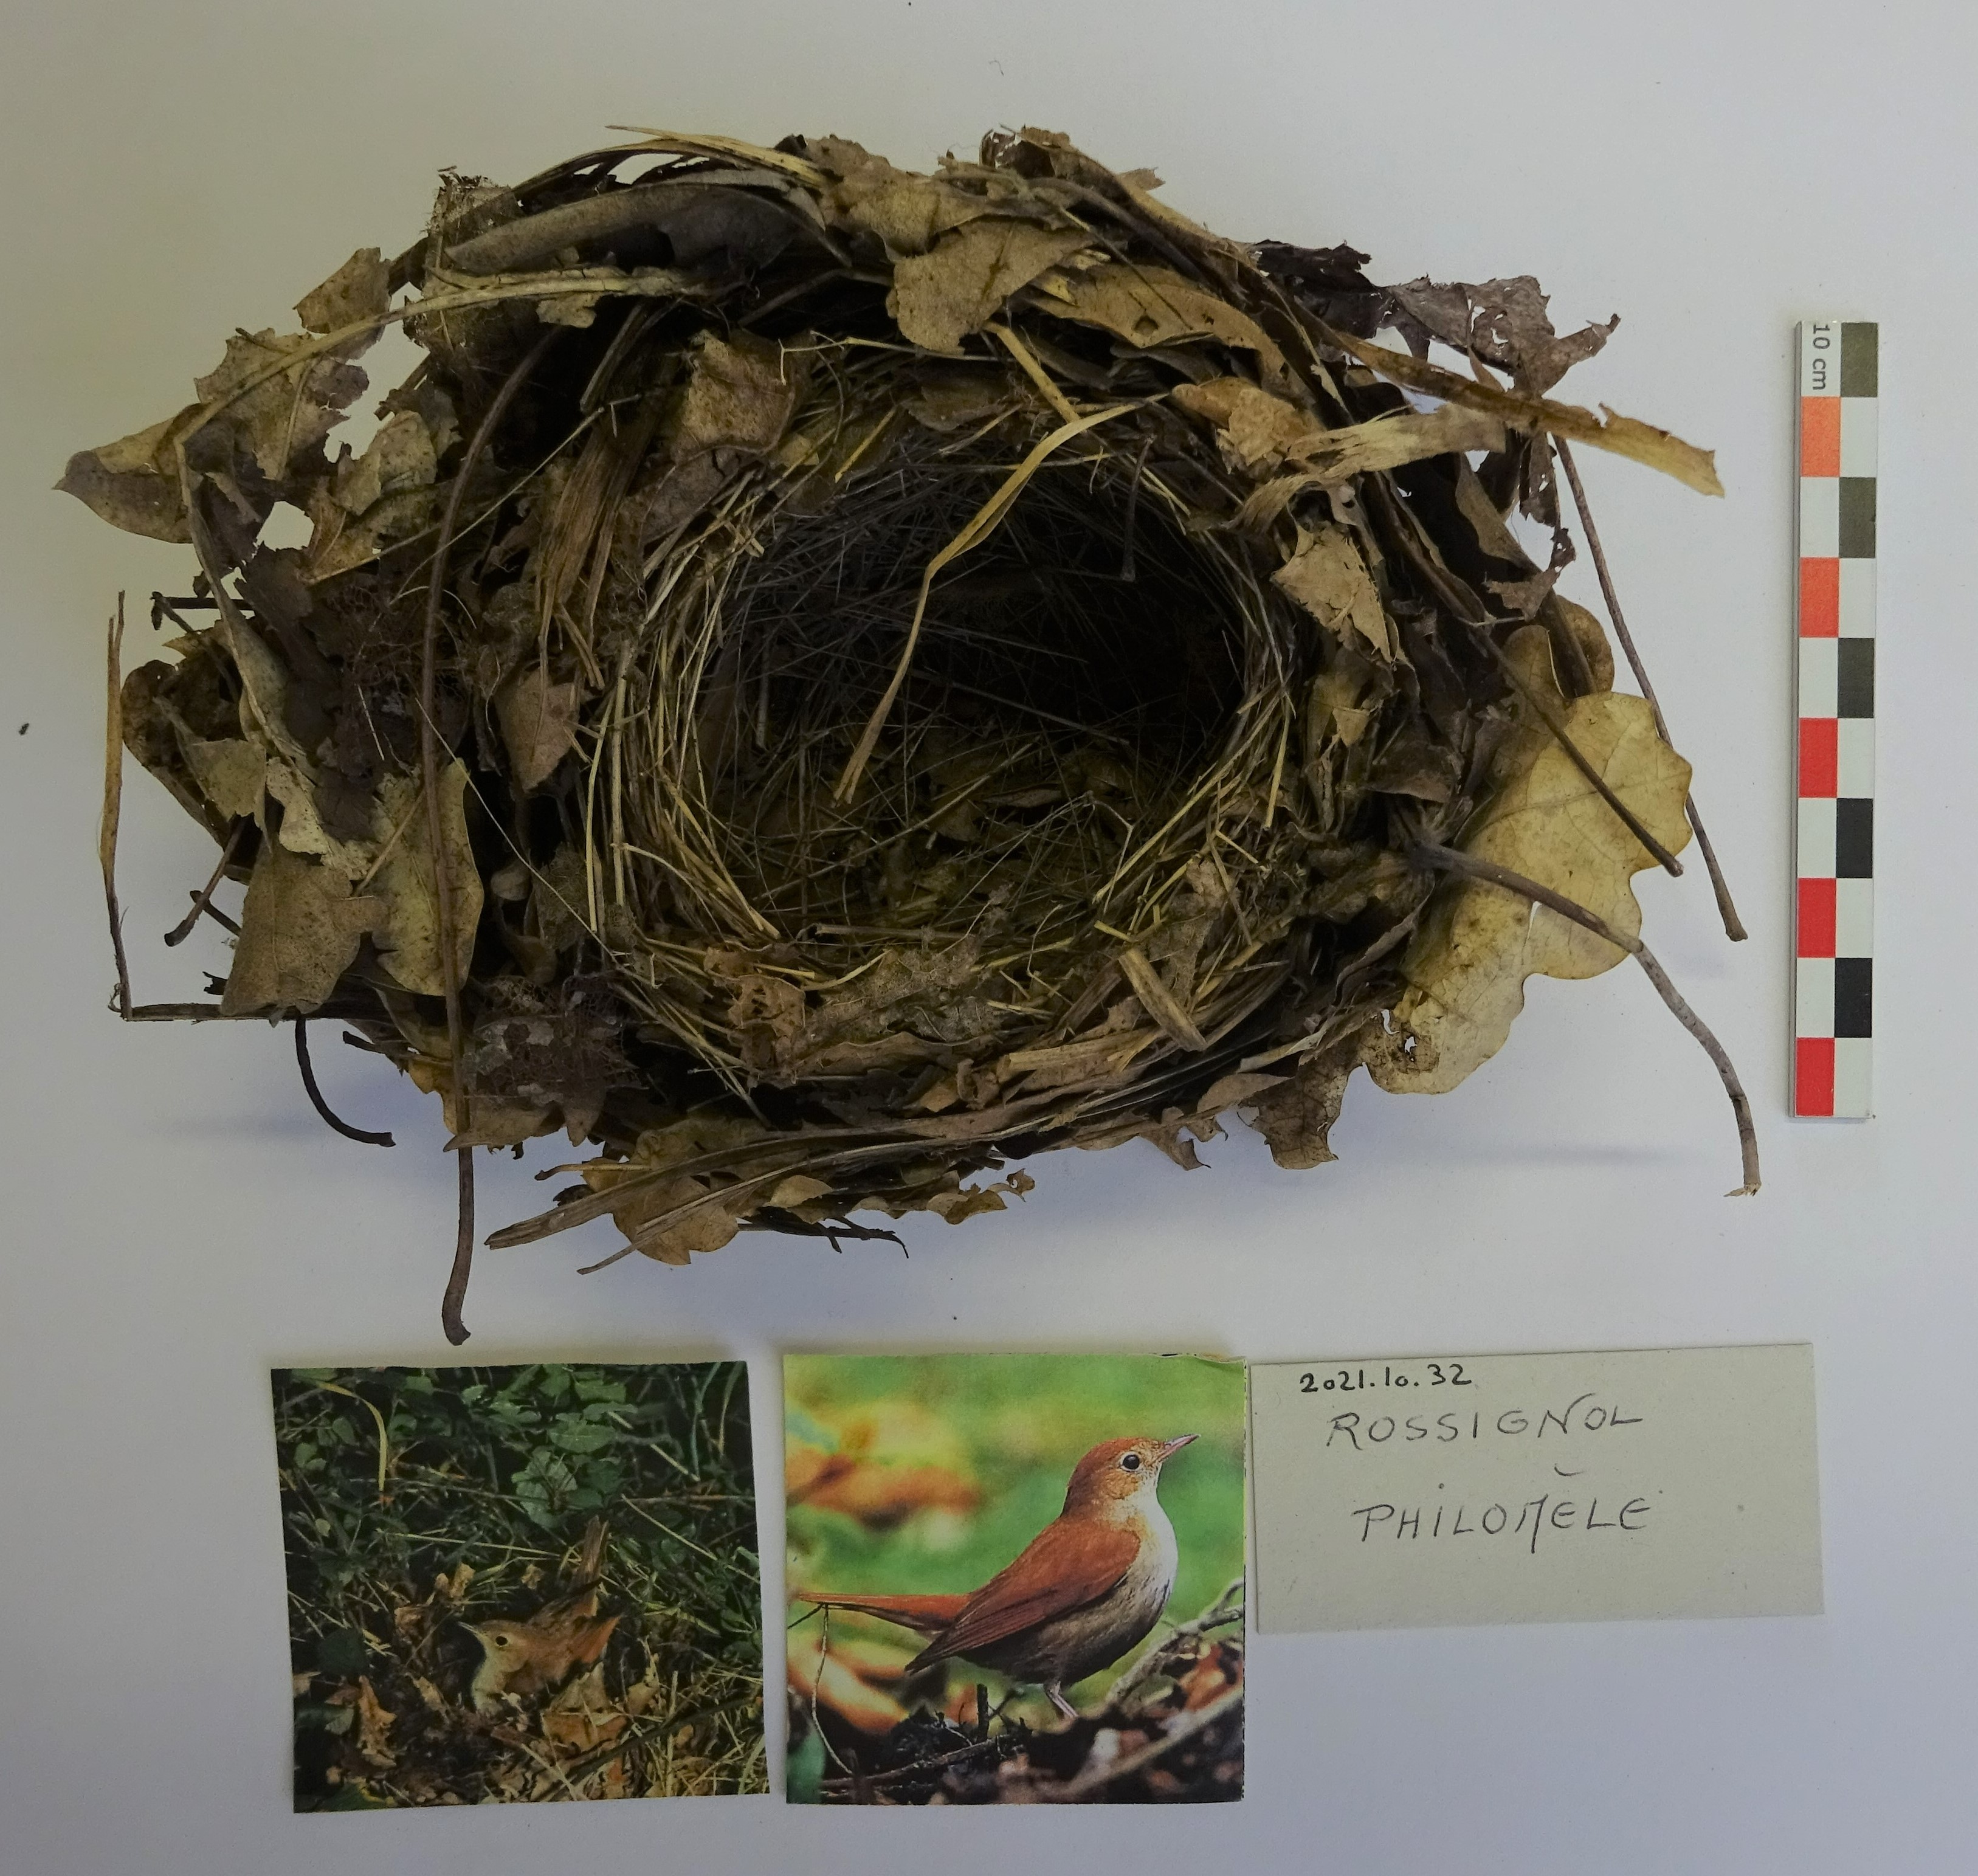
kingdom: Animalia
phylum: Chordata
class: Aves
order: Passeriformes
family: Muscicapidae
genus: Luscinia
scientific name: Luscinia megarhynchos
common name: Common nightingale
